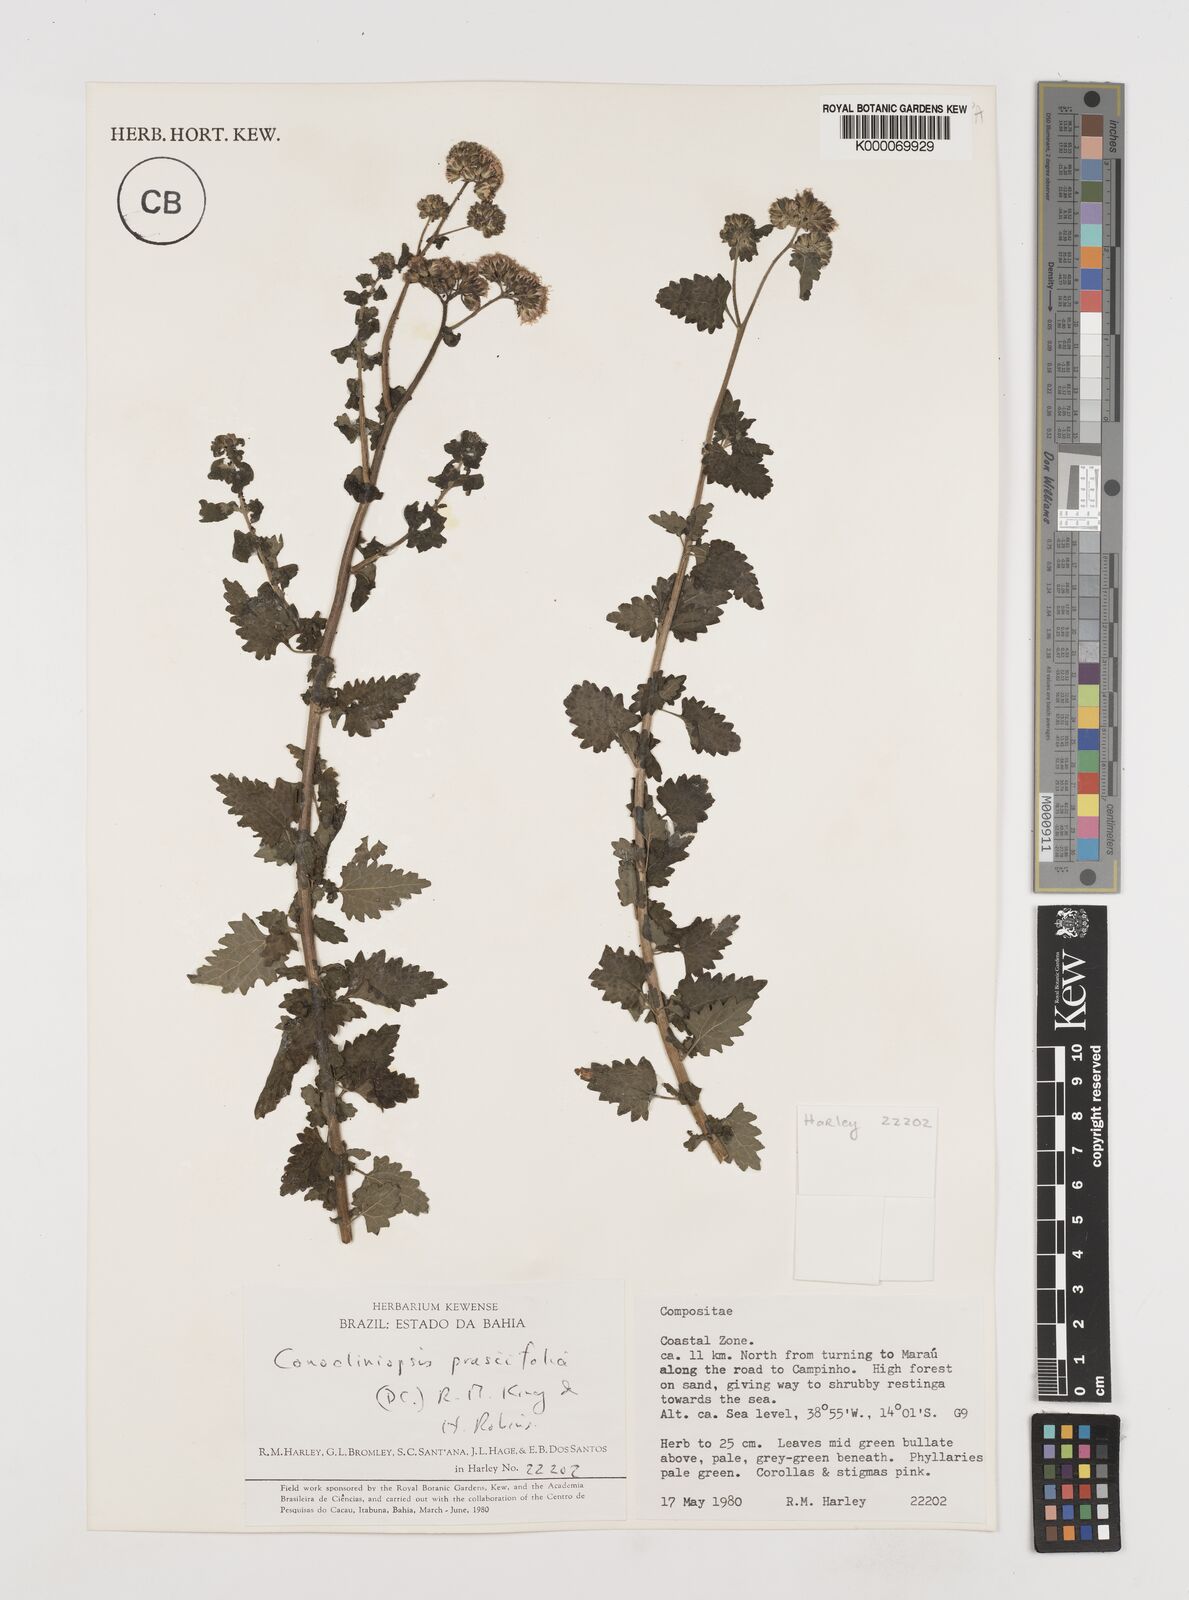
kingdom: Plantae
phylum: Tracheophyta
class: Magnoliopsida
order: Asterales
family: Asteraceae
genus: Conocliniopsis
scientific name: Conocliniopsis grossedentata
